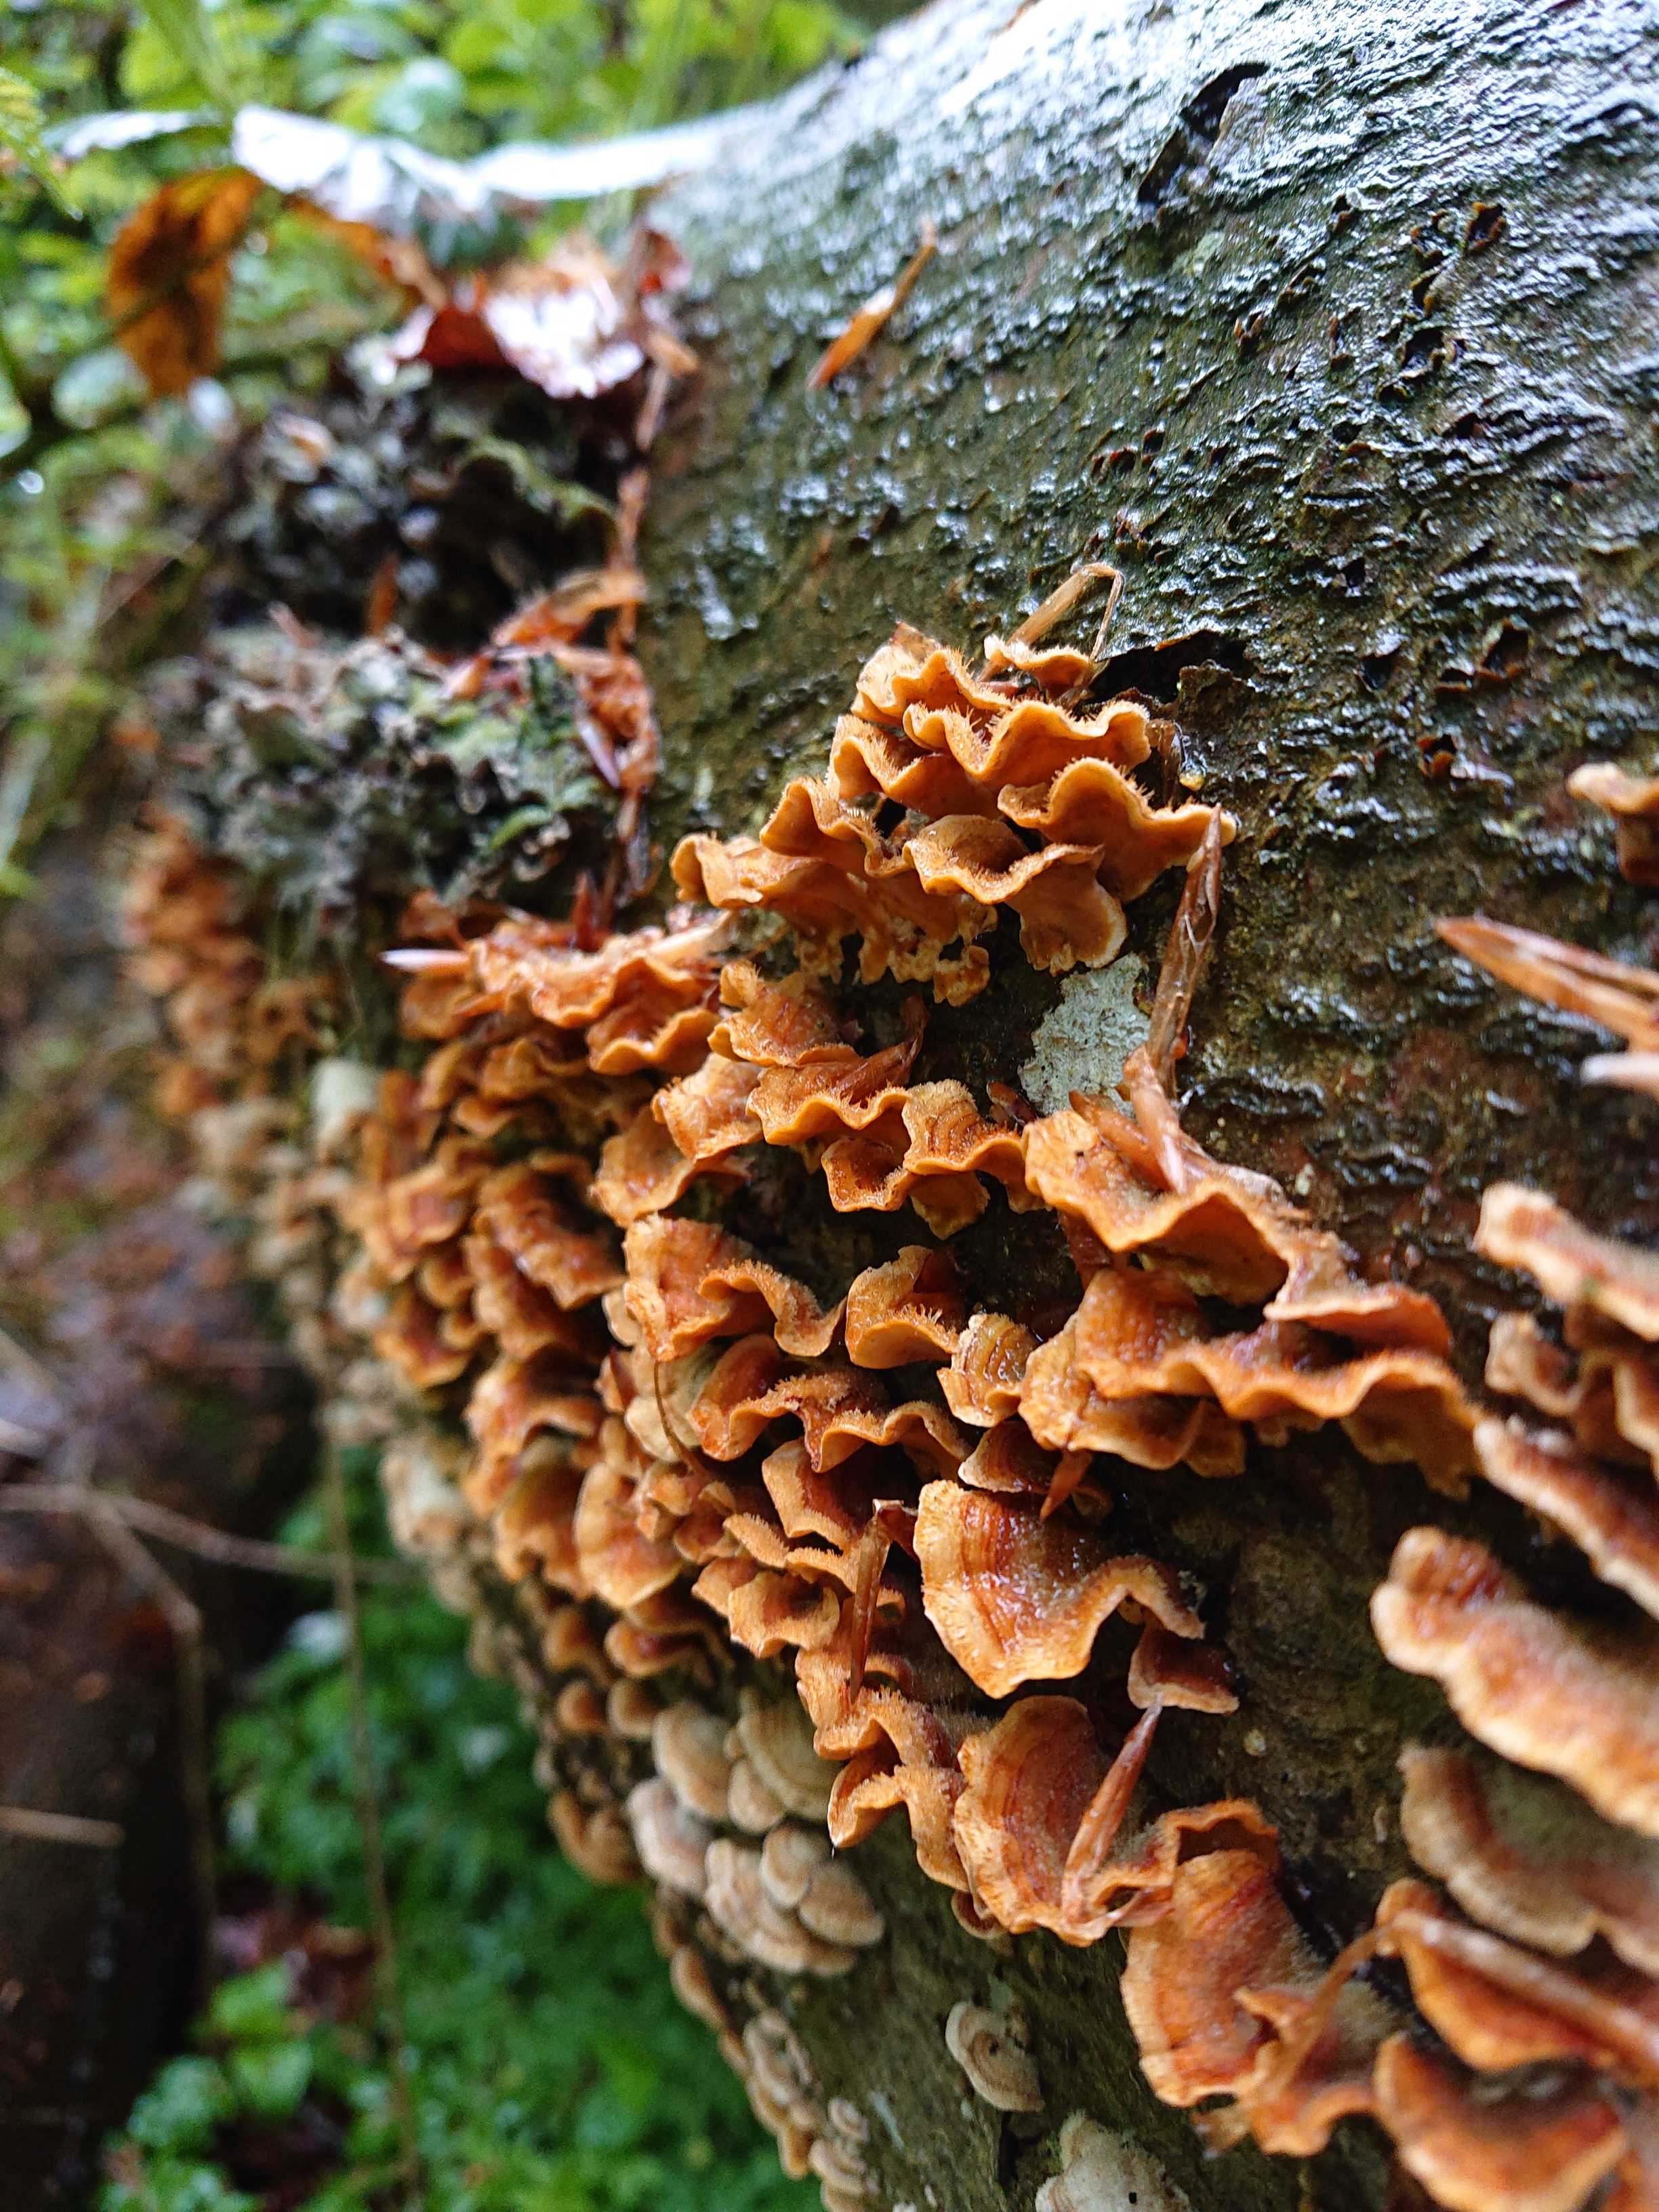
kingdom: Fungi
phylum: Basidiomycota
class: Agaricomycetes
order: Russulales
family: Stereaceae
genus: Stereum
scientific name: Stereum hirsutum
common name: håret lædersvamp
